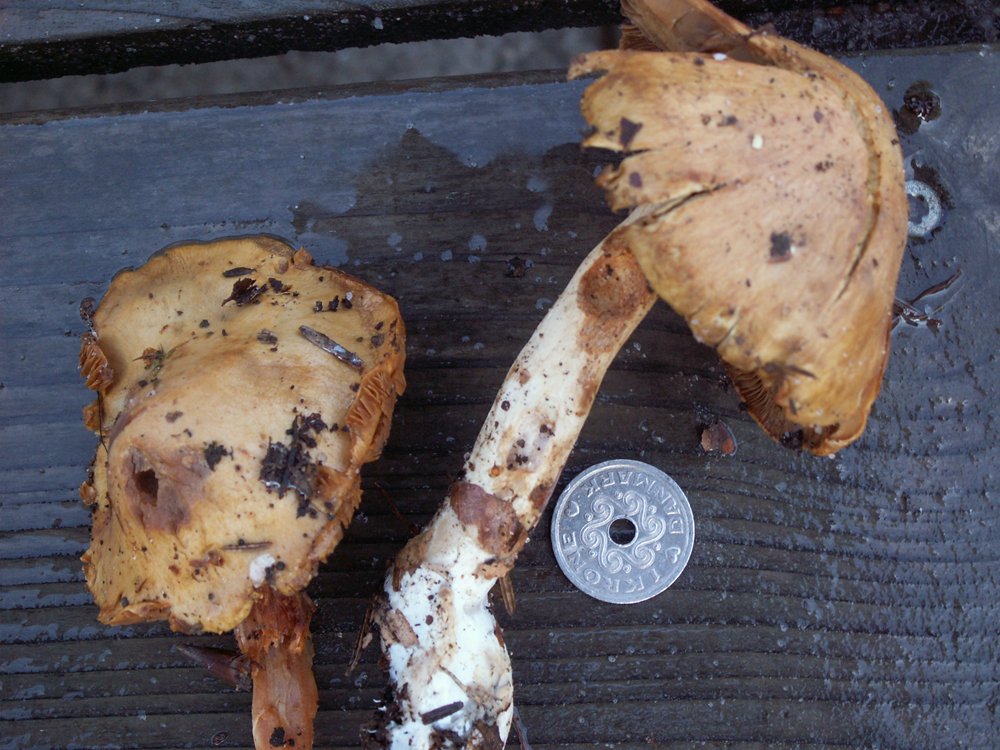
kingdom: Fungi
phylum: Basidiomycota
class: Agaricomycetes
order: Agaricales
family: Cortinariaceae
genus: Cortinarius
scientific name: Cortinarius delibutus
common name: gul slørhat
